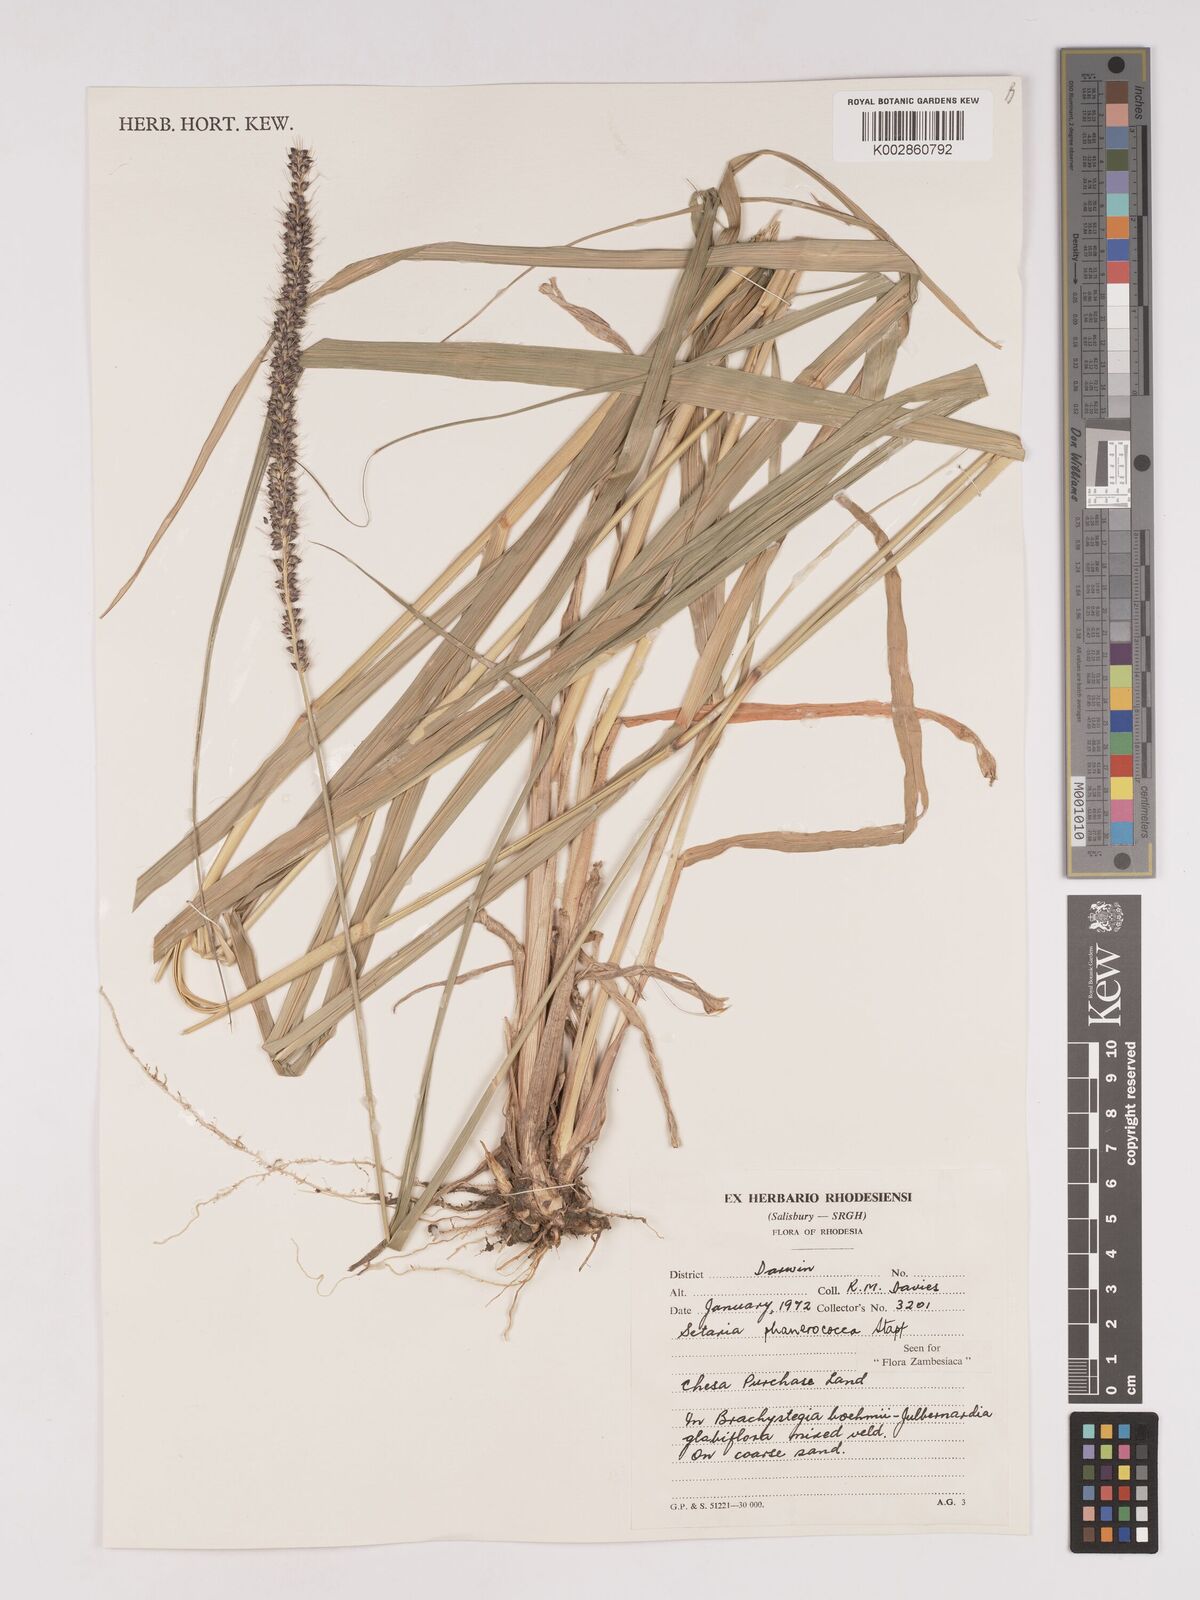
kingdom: Plantae
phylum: Tracheophyta
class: Liliopsida
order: Poales
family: Poaceae
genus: Setaria
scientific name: Setaria incrassata
